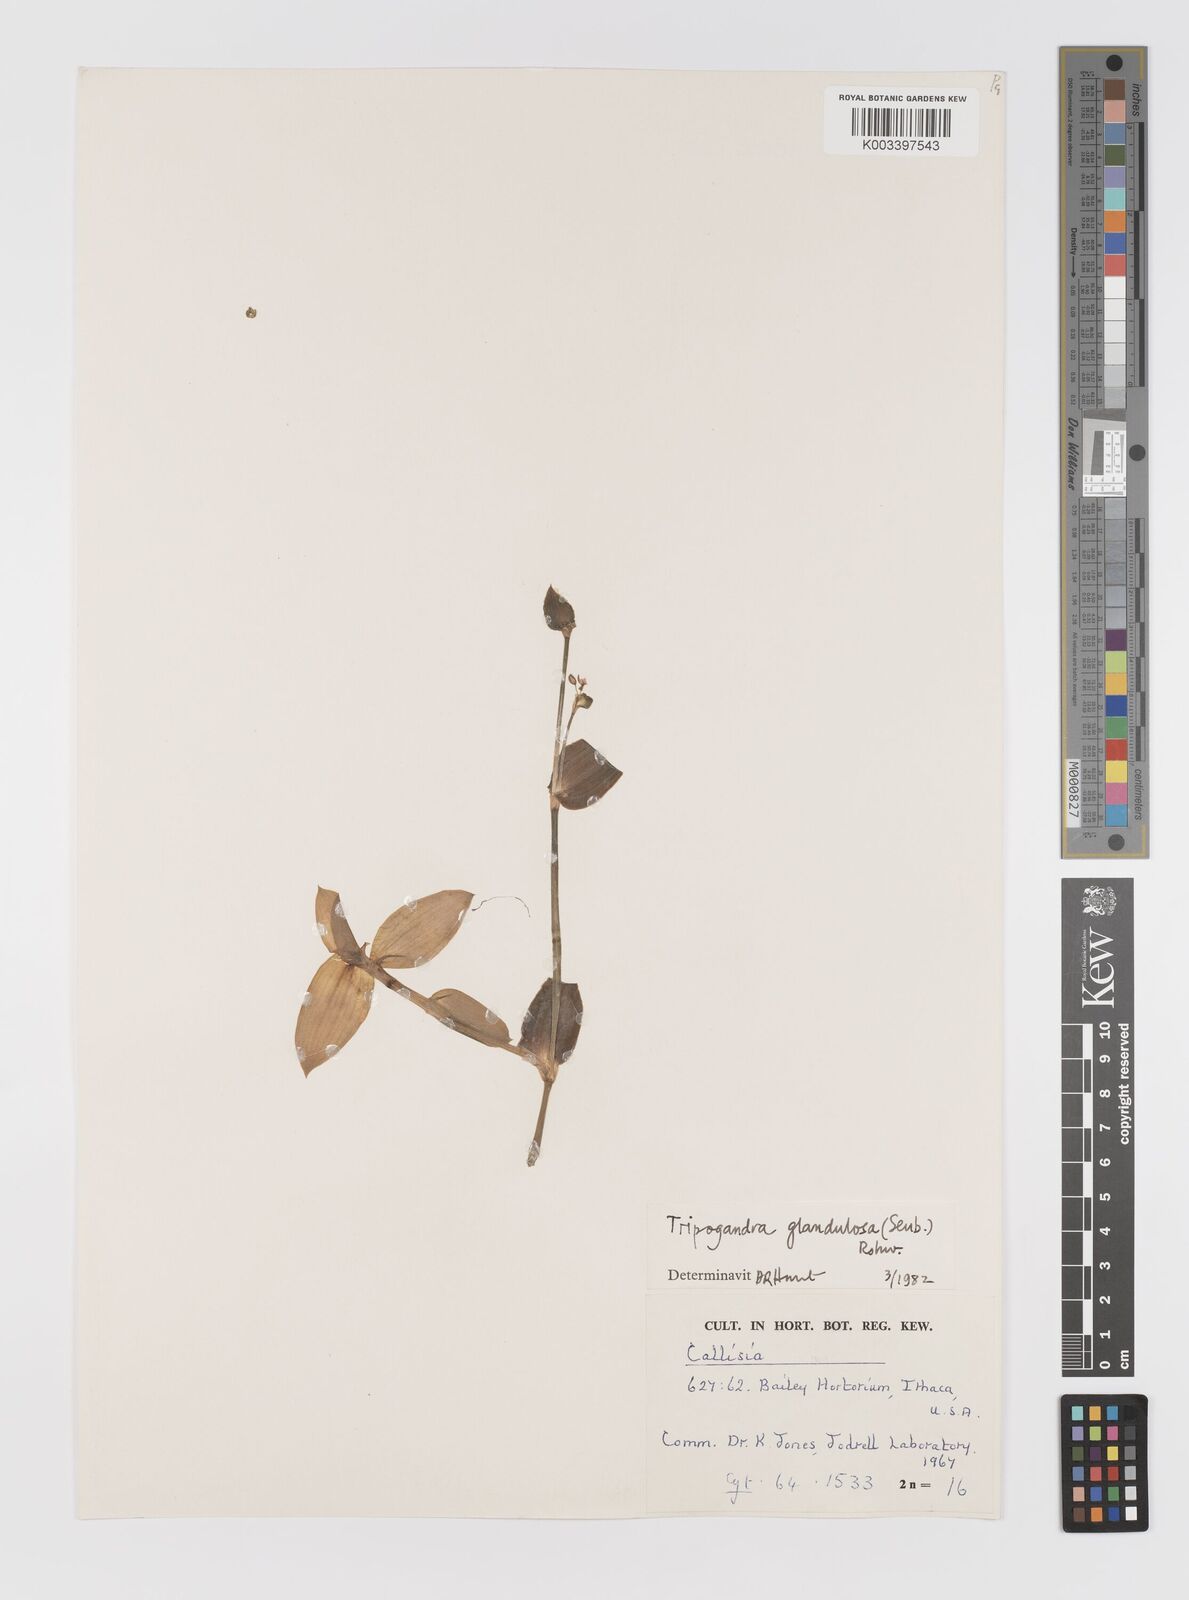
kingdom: Plantae
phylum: Tracheophyta
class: Liliopsida
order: Commelinales
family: Commelinaceae
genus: Callisia
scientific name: Callisia glandulosa
